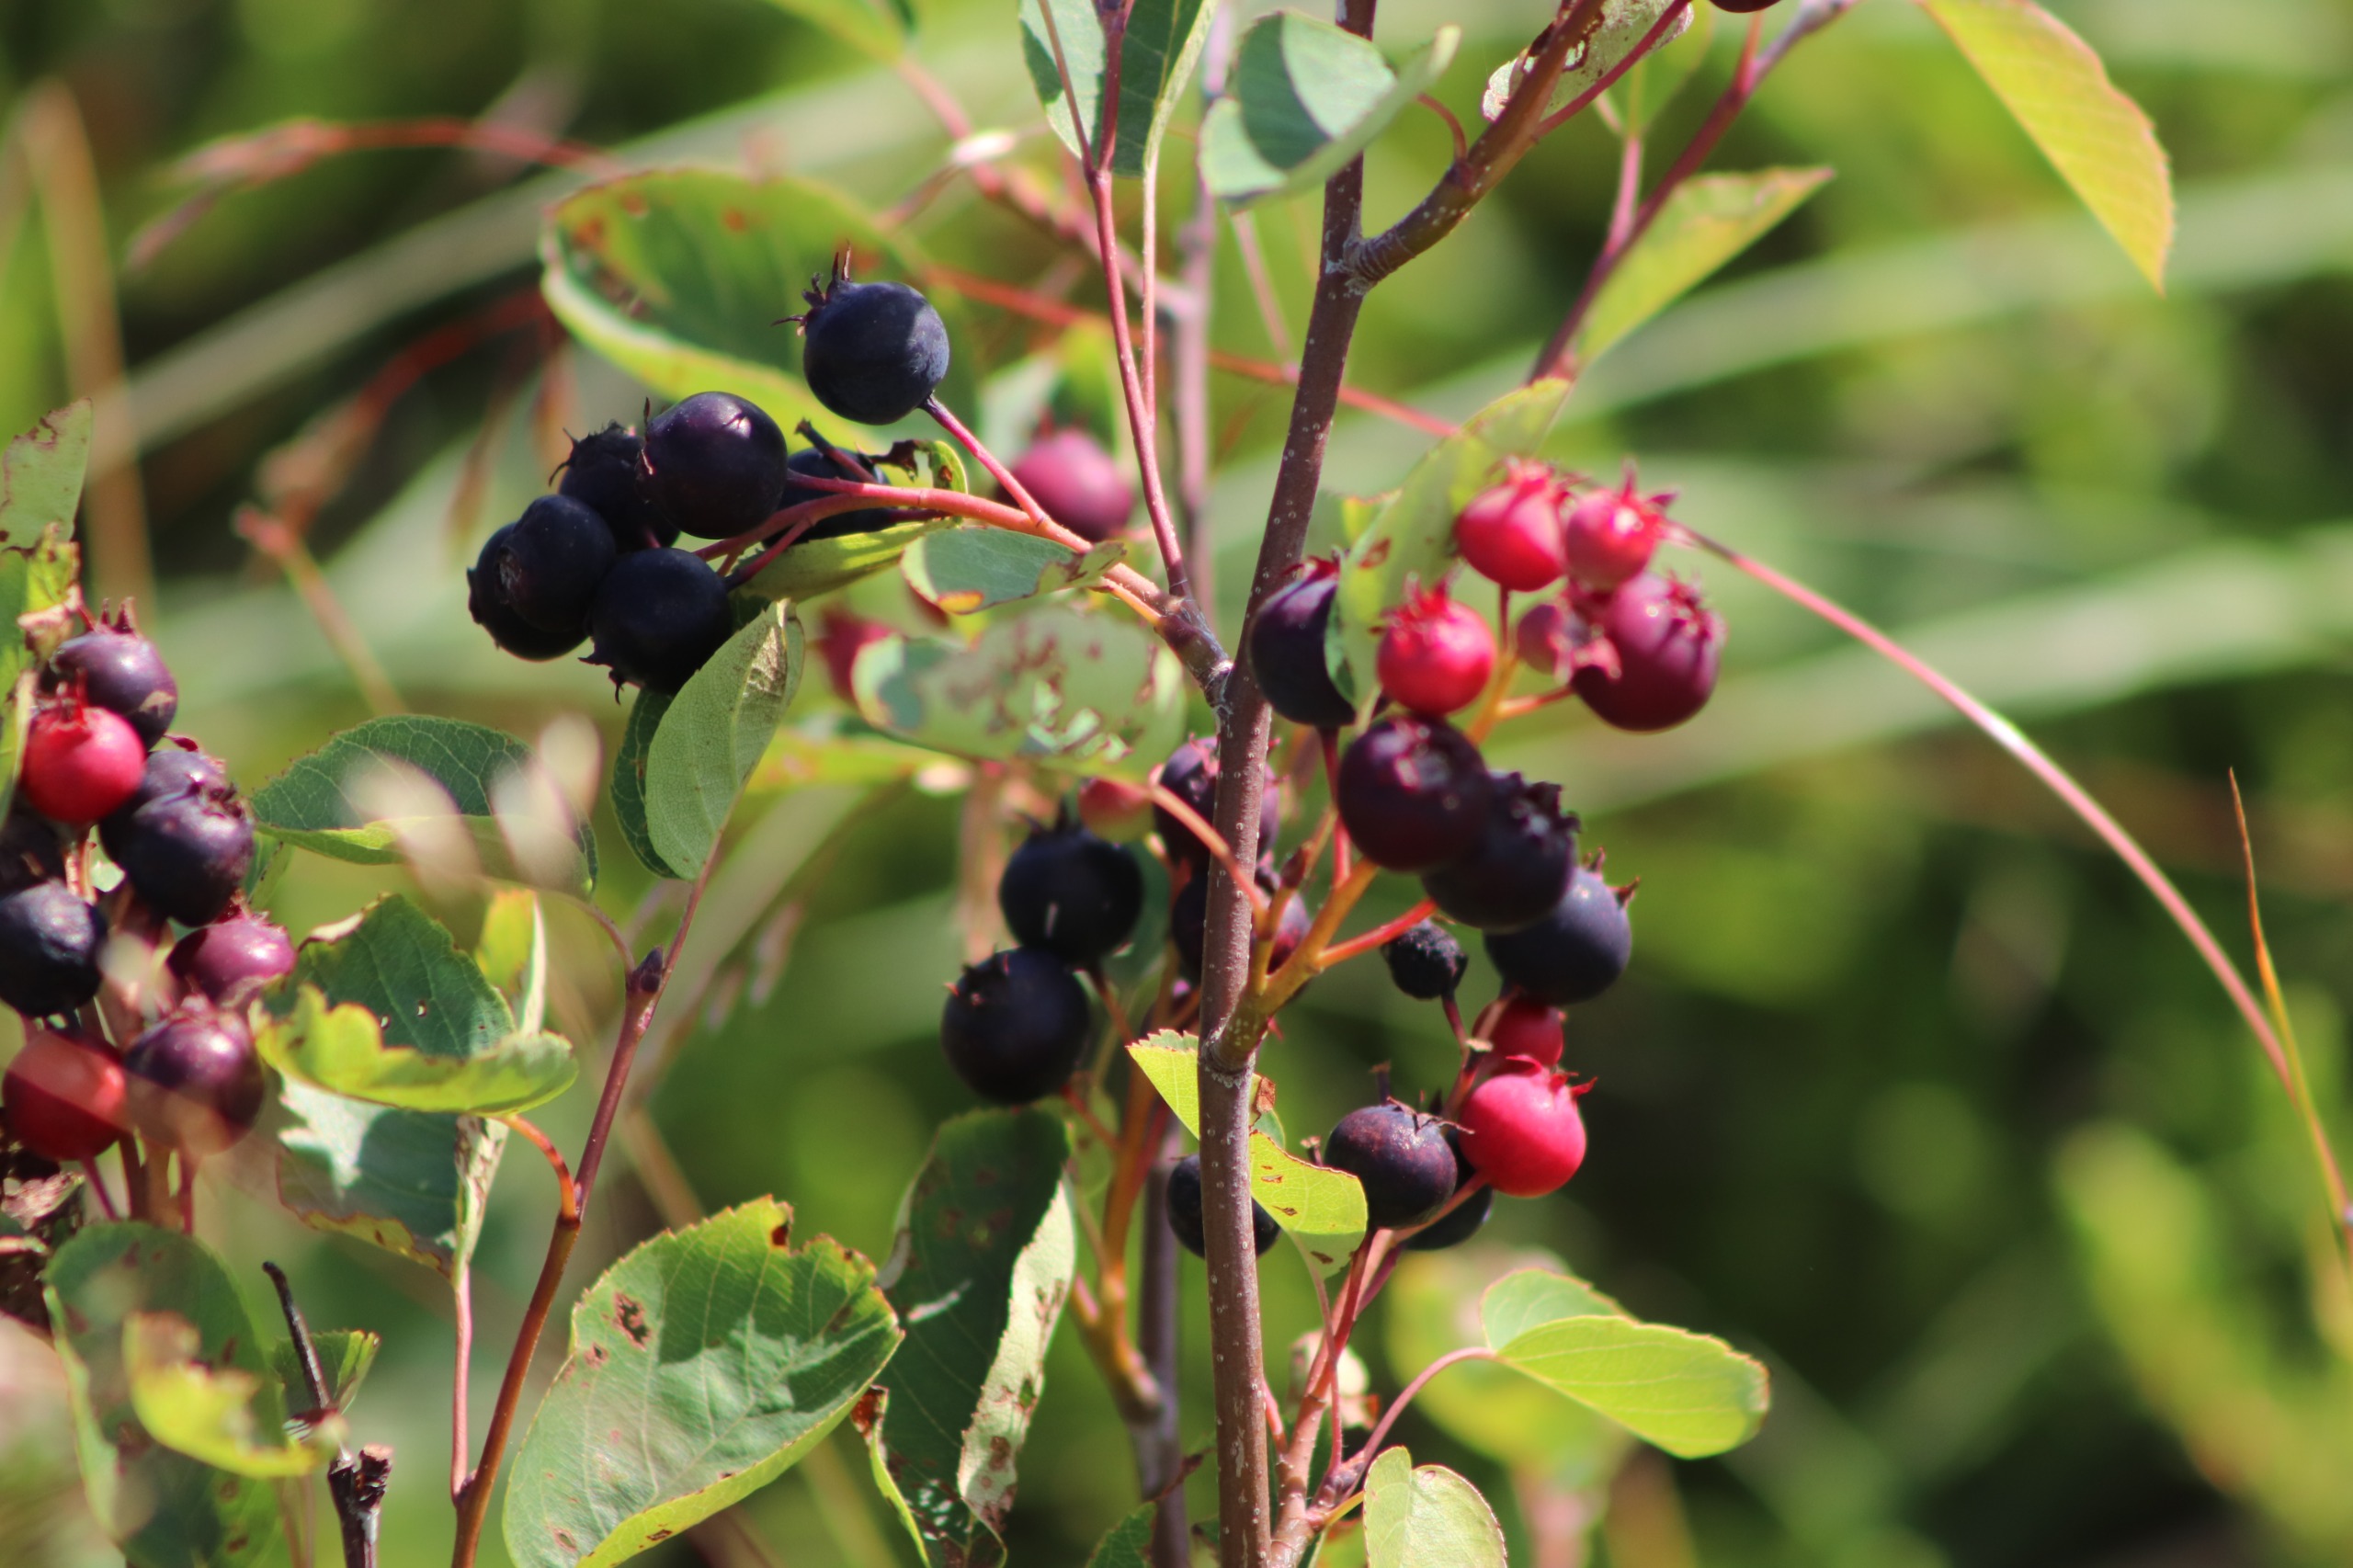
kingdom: Plantae
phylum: Tracheophyta
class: Magnoliopsida
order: Rosales
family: Rosaceae
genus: Amelanchier
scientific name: Amelanchier humilis
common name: Aks-bærmispel
